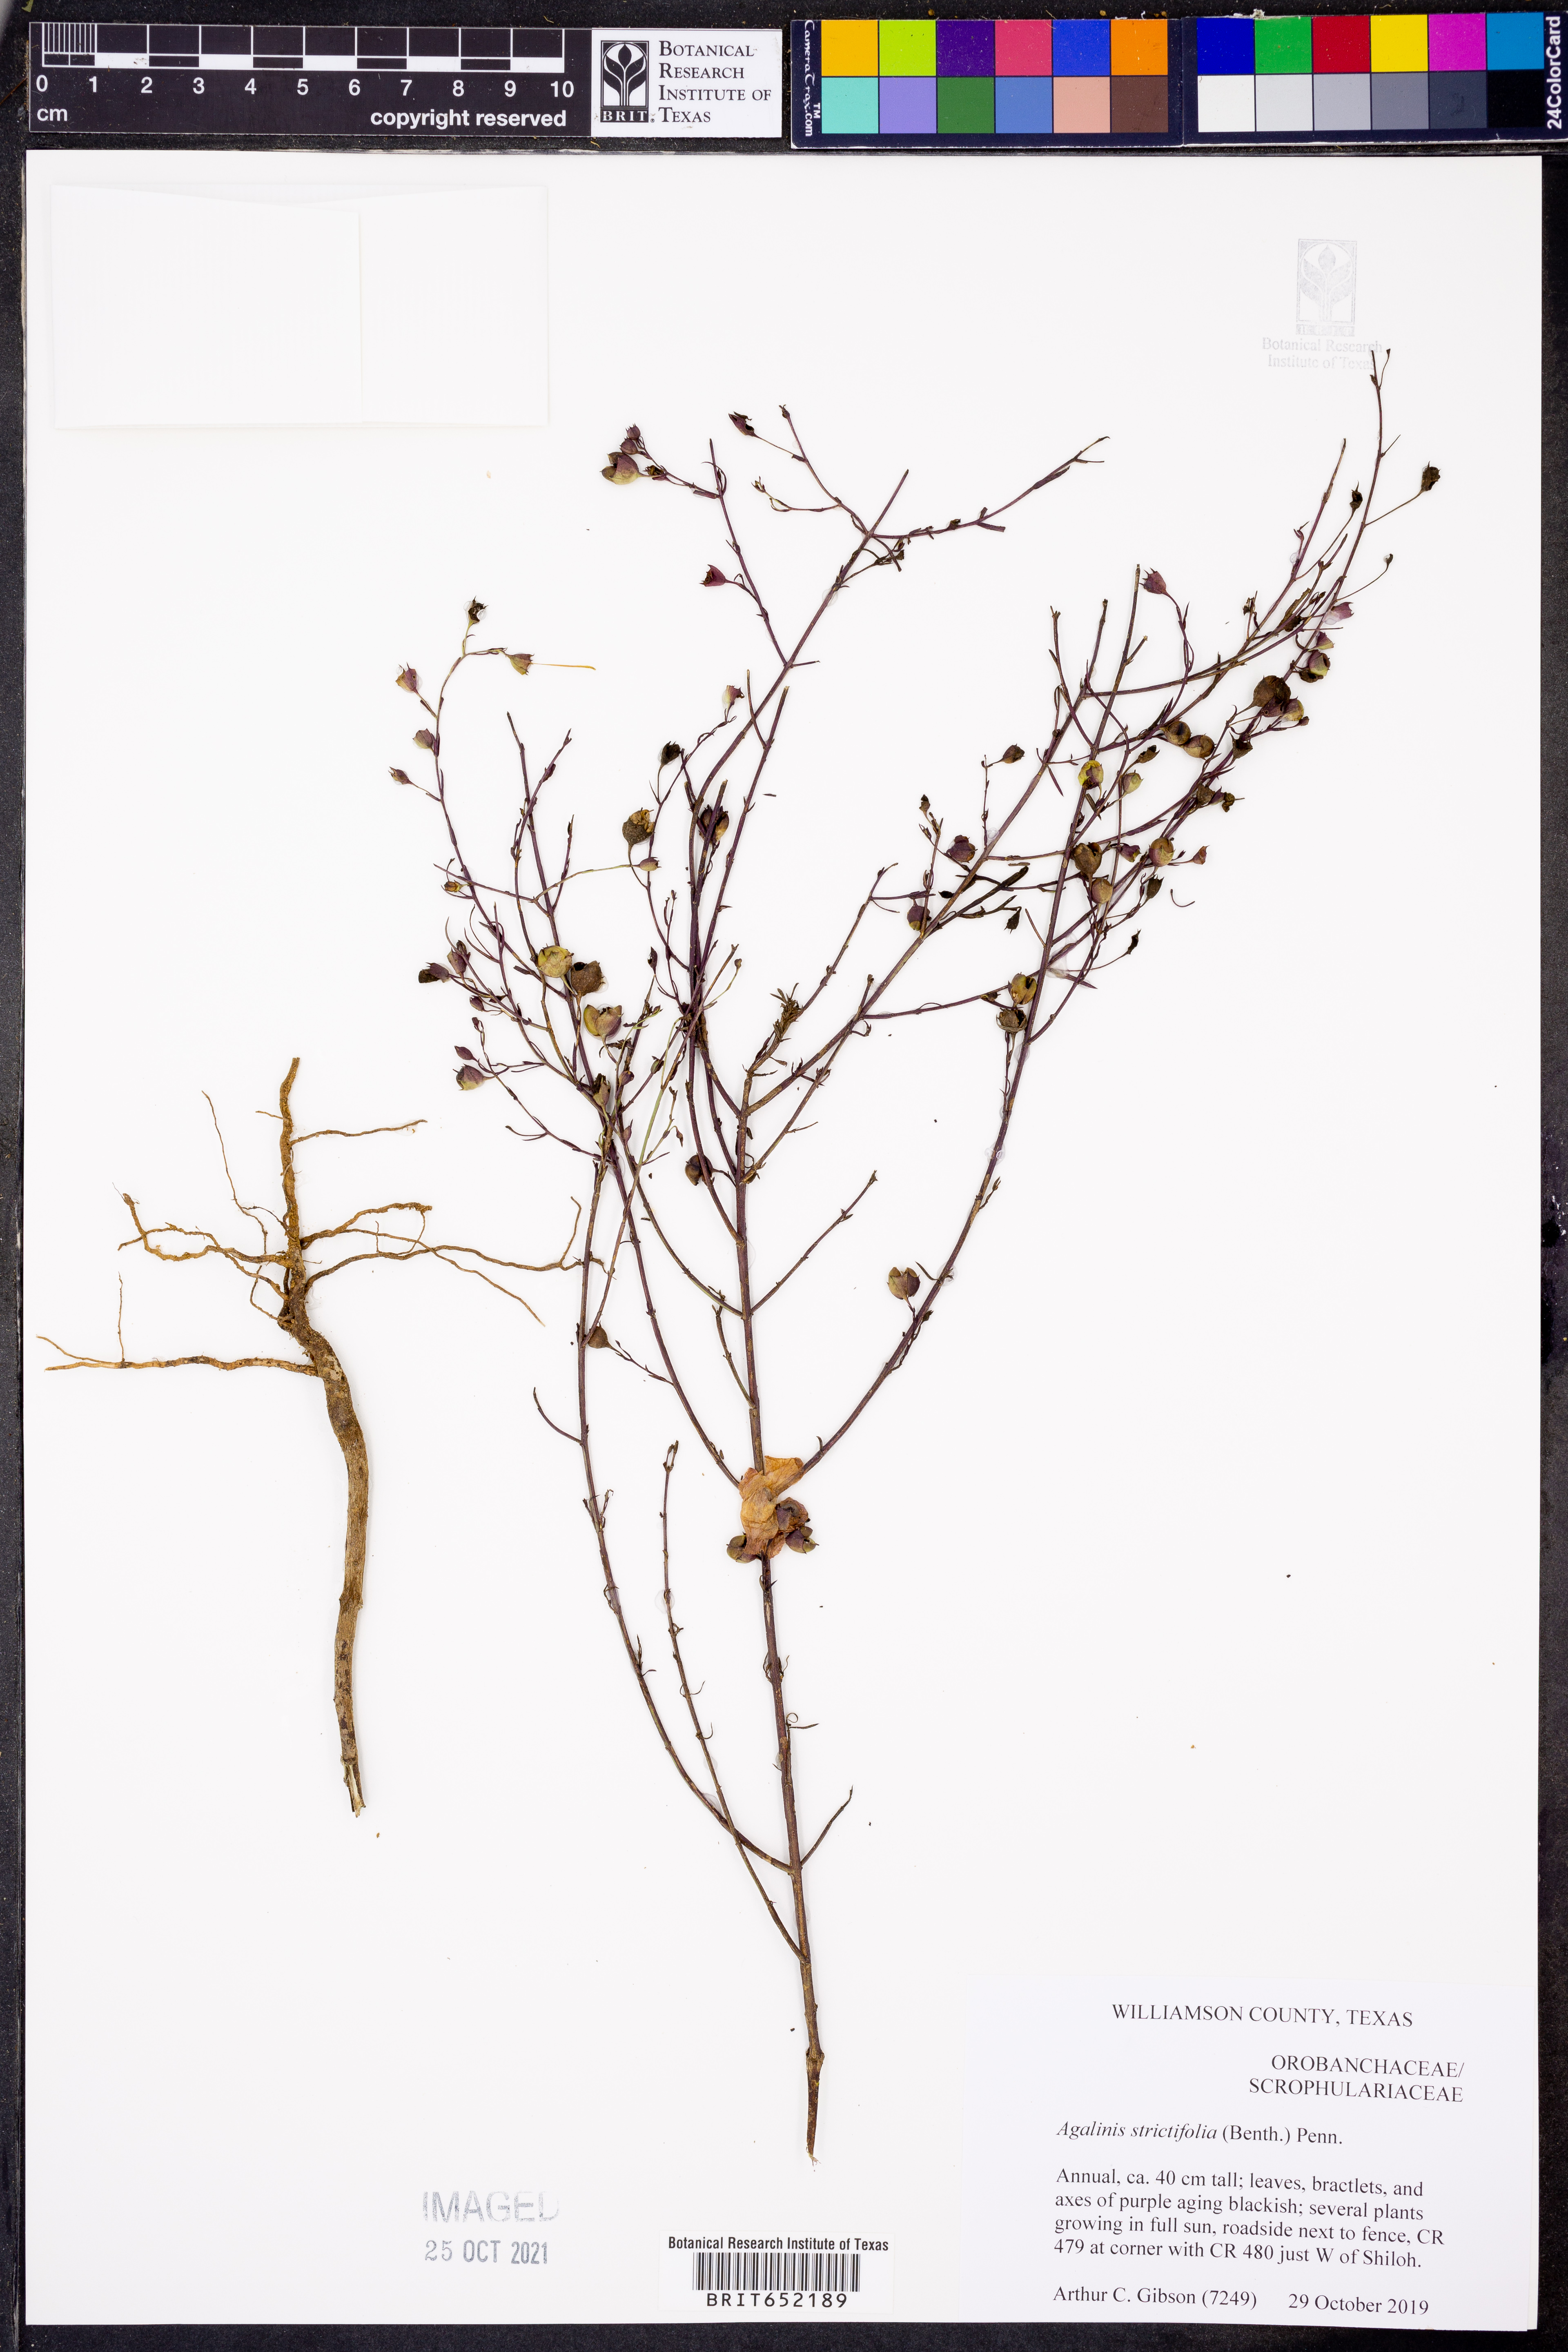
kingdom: Plantae
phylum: Tracheophyta
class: Magnoliopsida
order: Lamiales
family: Orobanchaceae
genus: Agalinis
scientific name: Agalinis strictifolia
